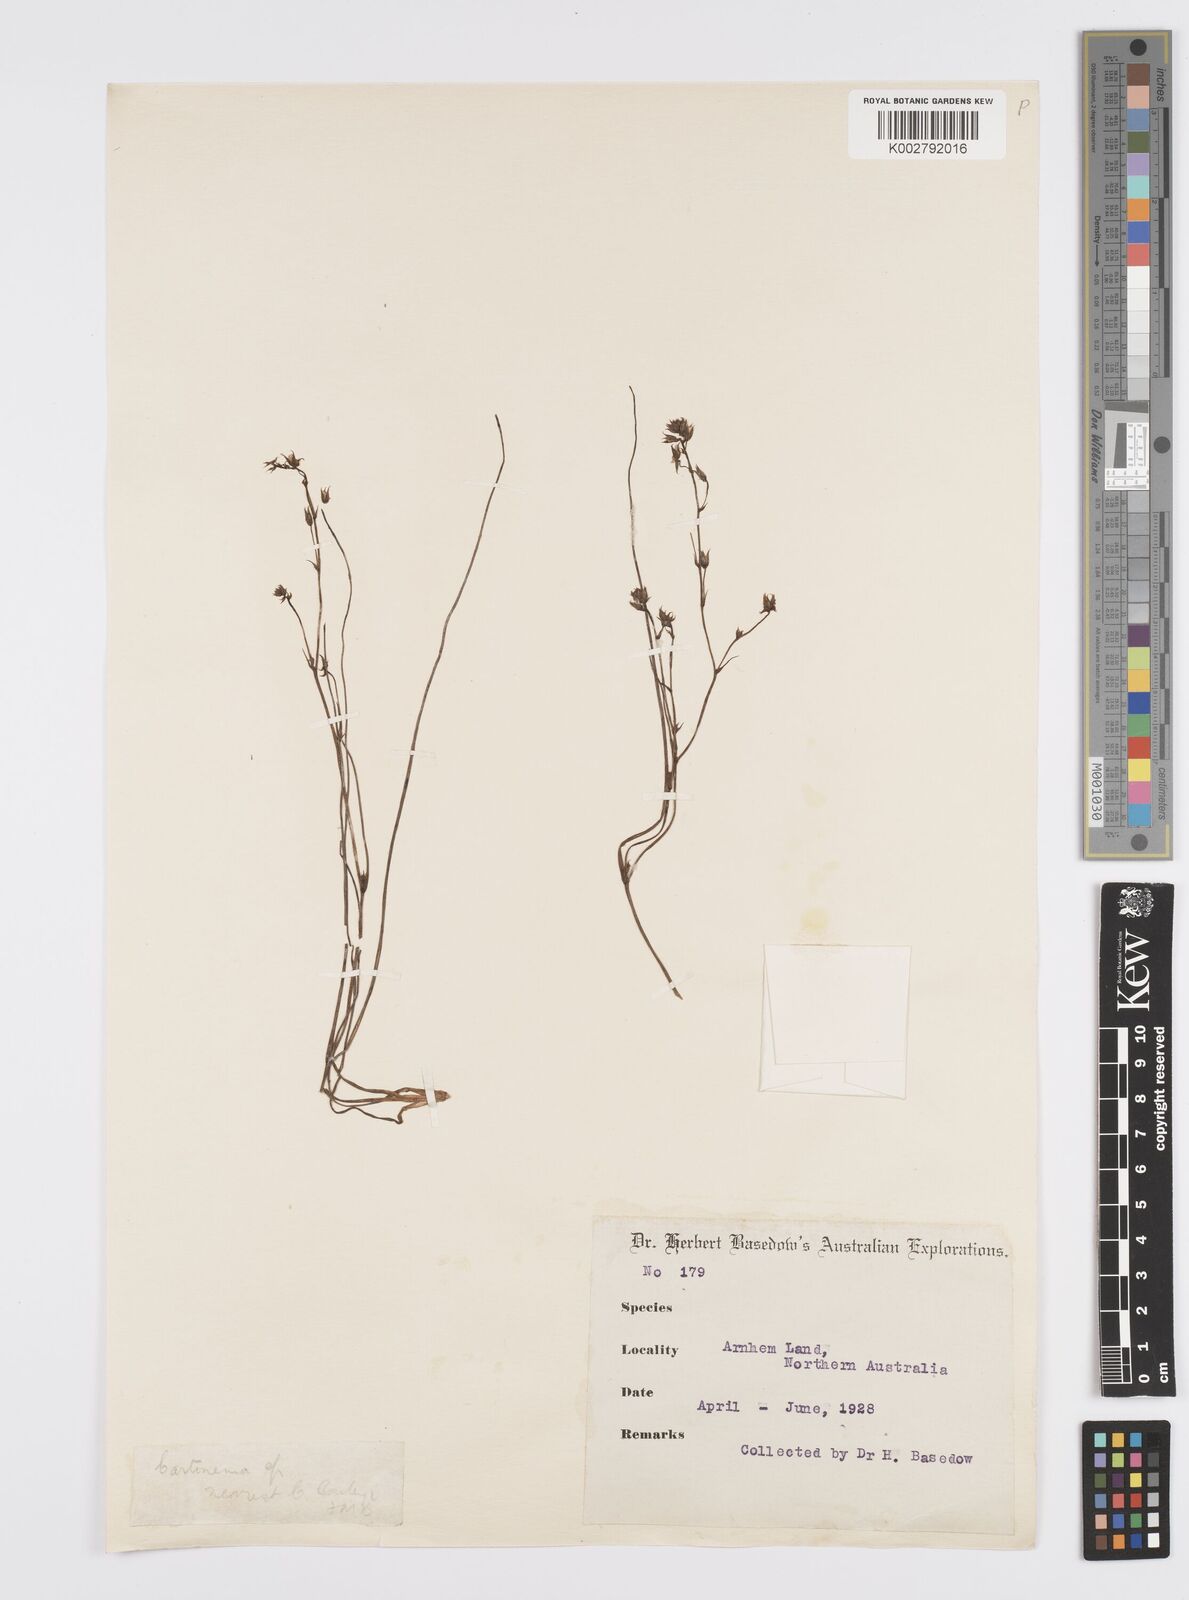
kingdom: Plantae
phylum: Tracheophyta
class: Liliopsida
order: Commelinales
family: Commelinaceae
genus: Cartonema
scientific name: Cartonema
